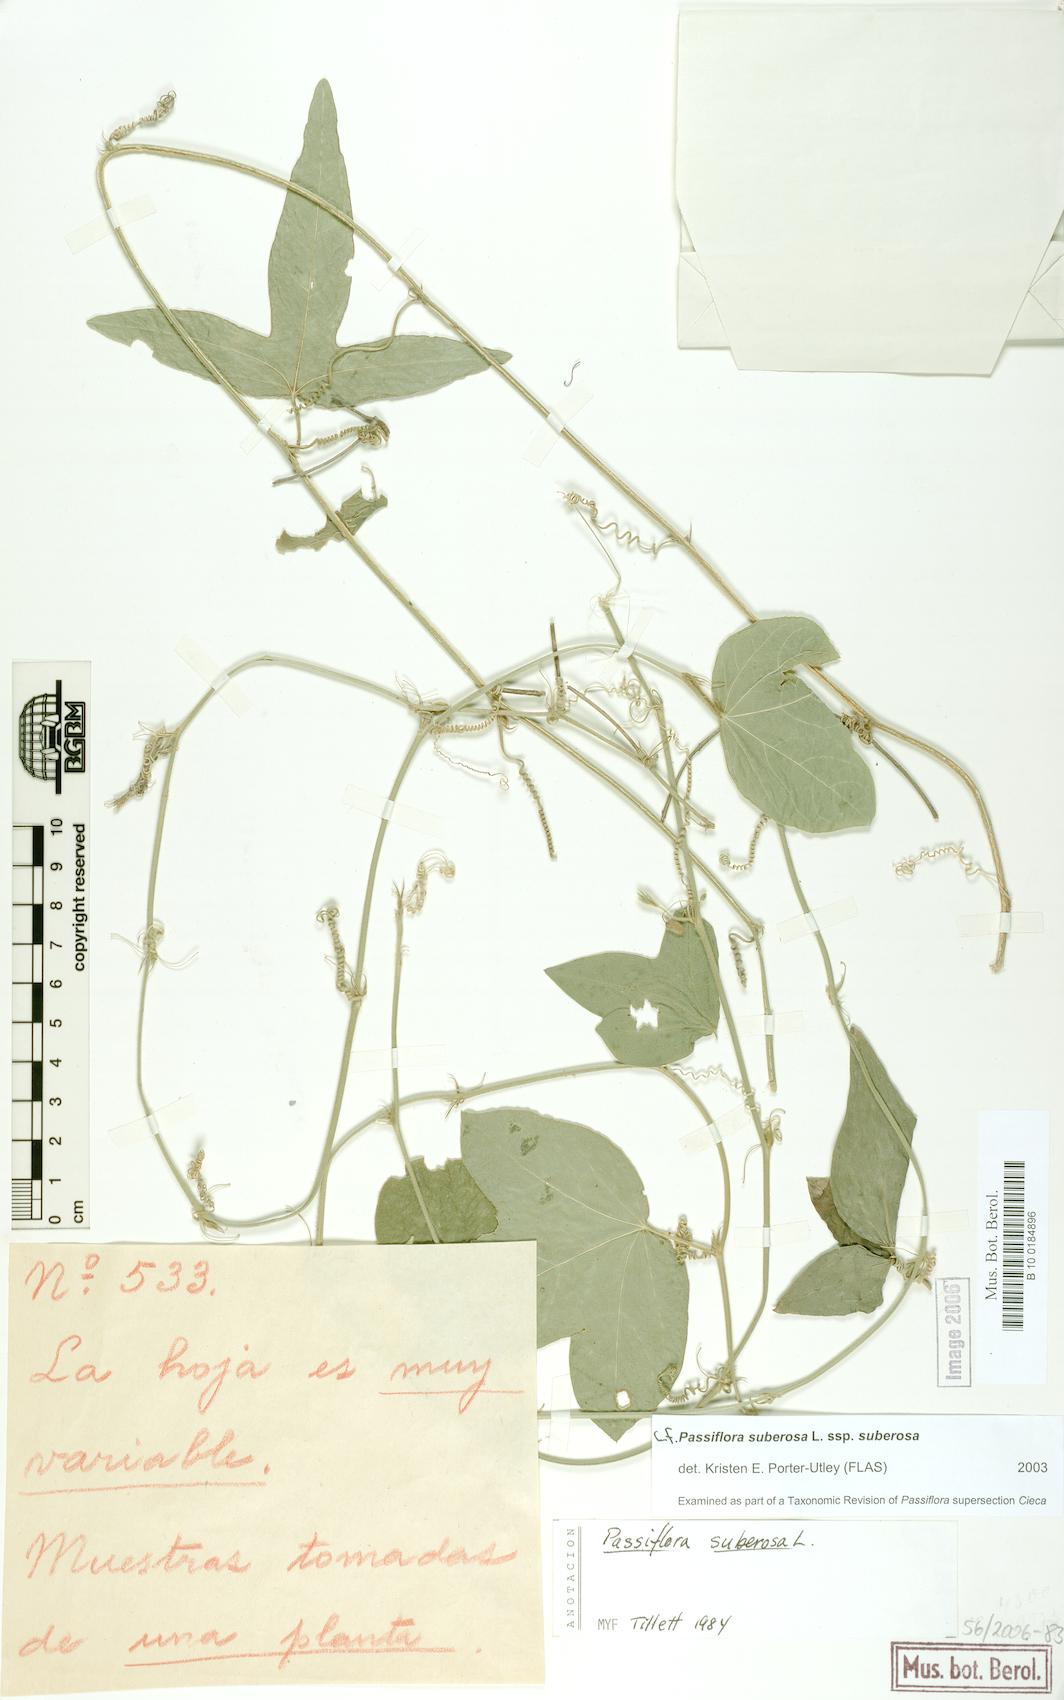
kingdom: Plantae
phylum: Tracheophyta
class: Magnoliopsida
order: Malpighiales
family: Passifloraceae
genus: Passiflora
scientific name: Passiflora suberosa
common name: Wild passionfruit
